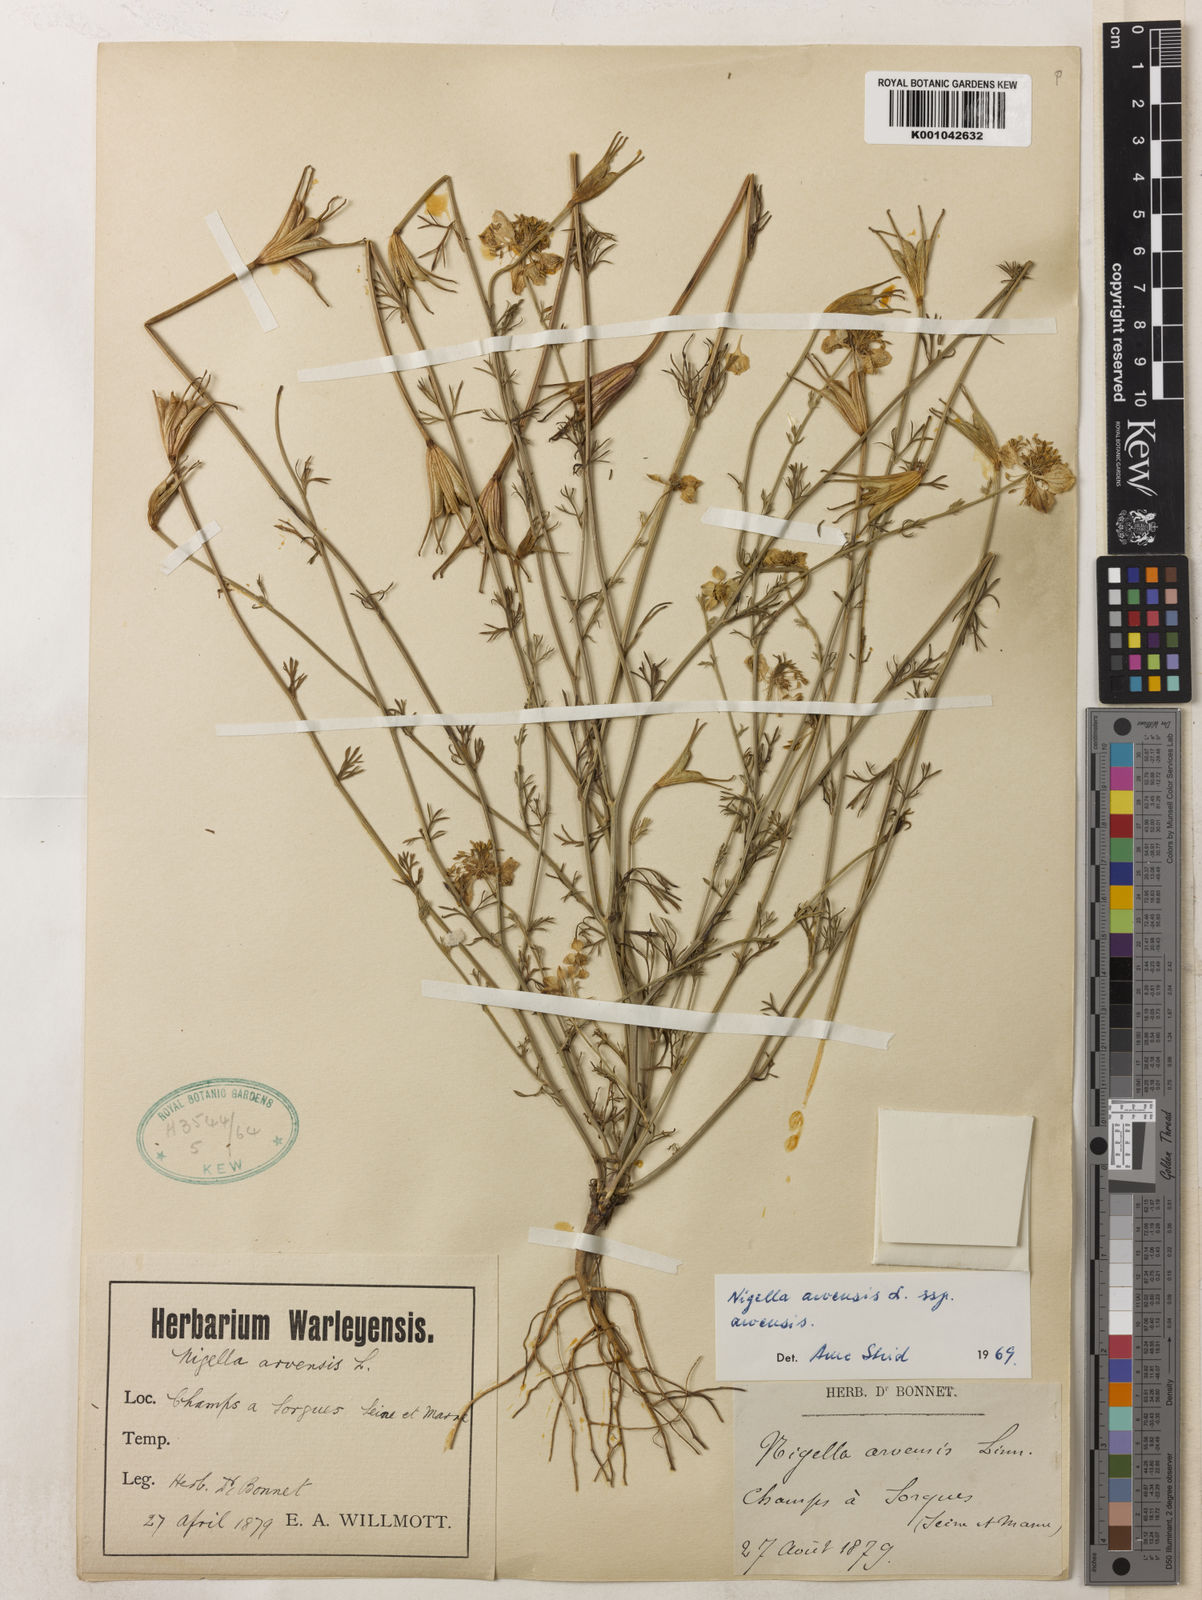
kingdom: Plantae
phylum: Tracheophyta
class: Magnoliopsida
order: Ranunculales
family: Ranunculaceae
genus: Nigella
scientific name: Nigella arvensis
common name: Wild fennel-flower
